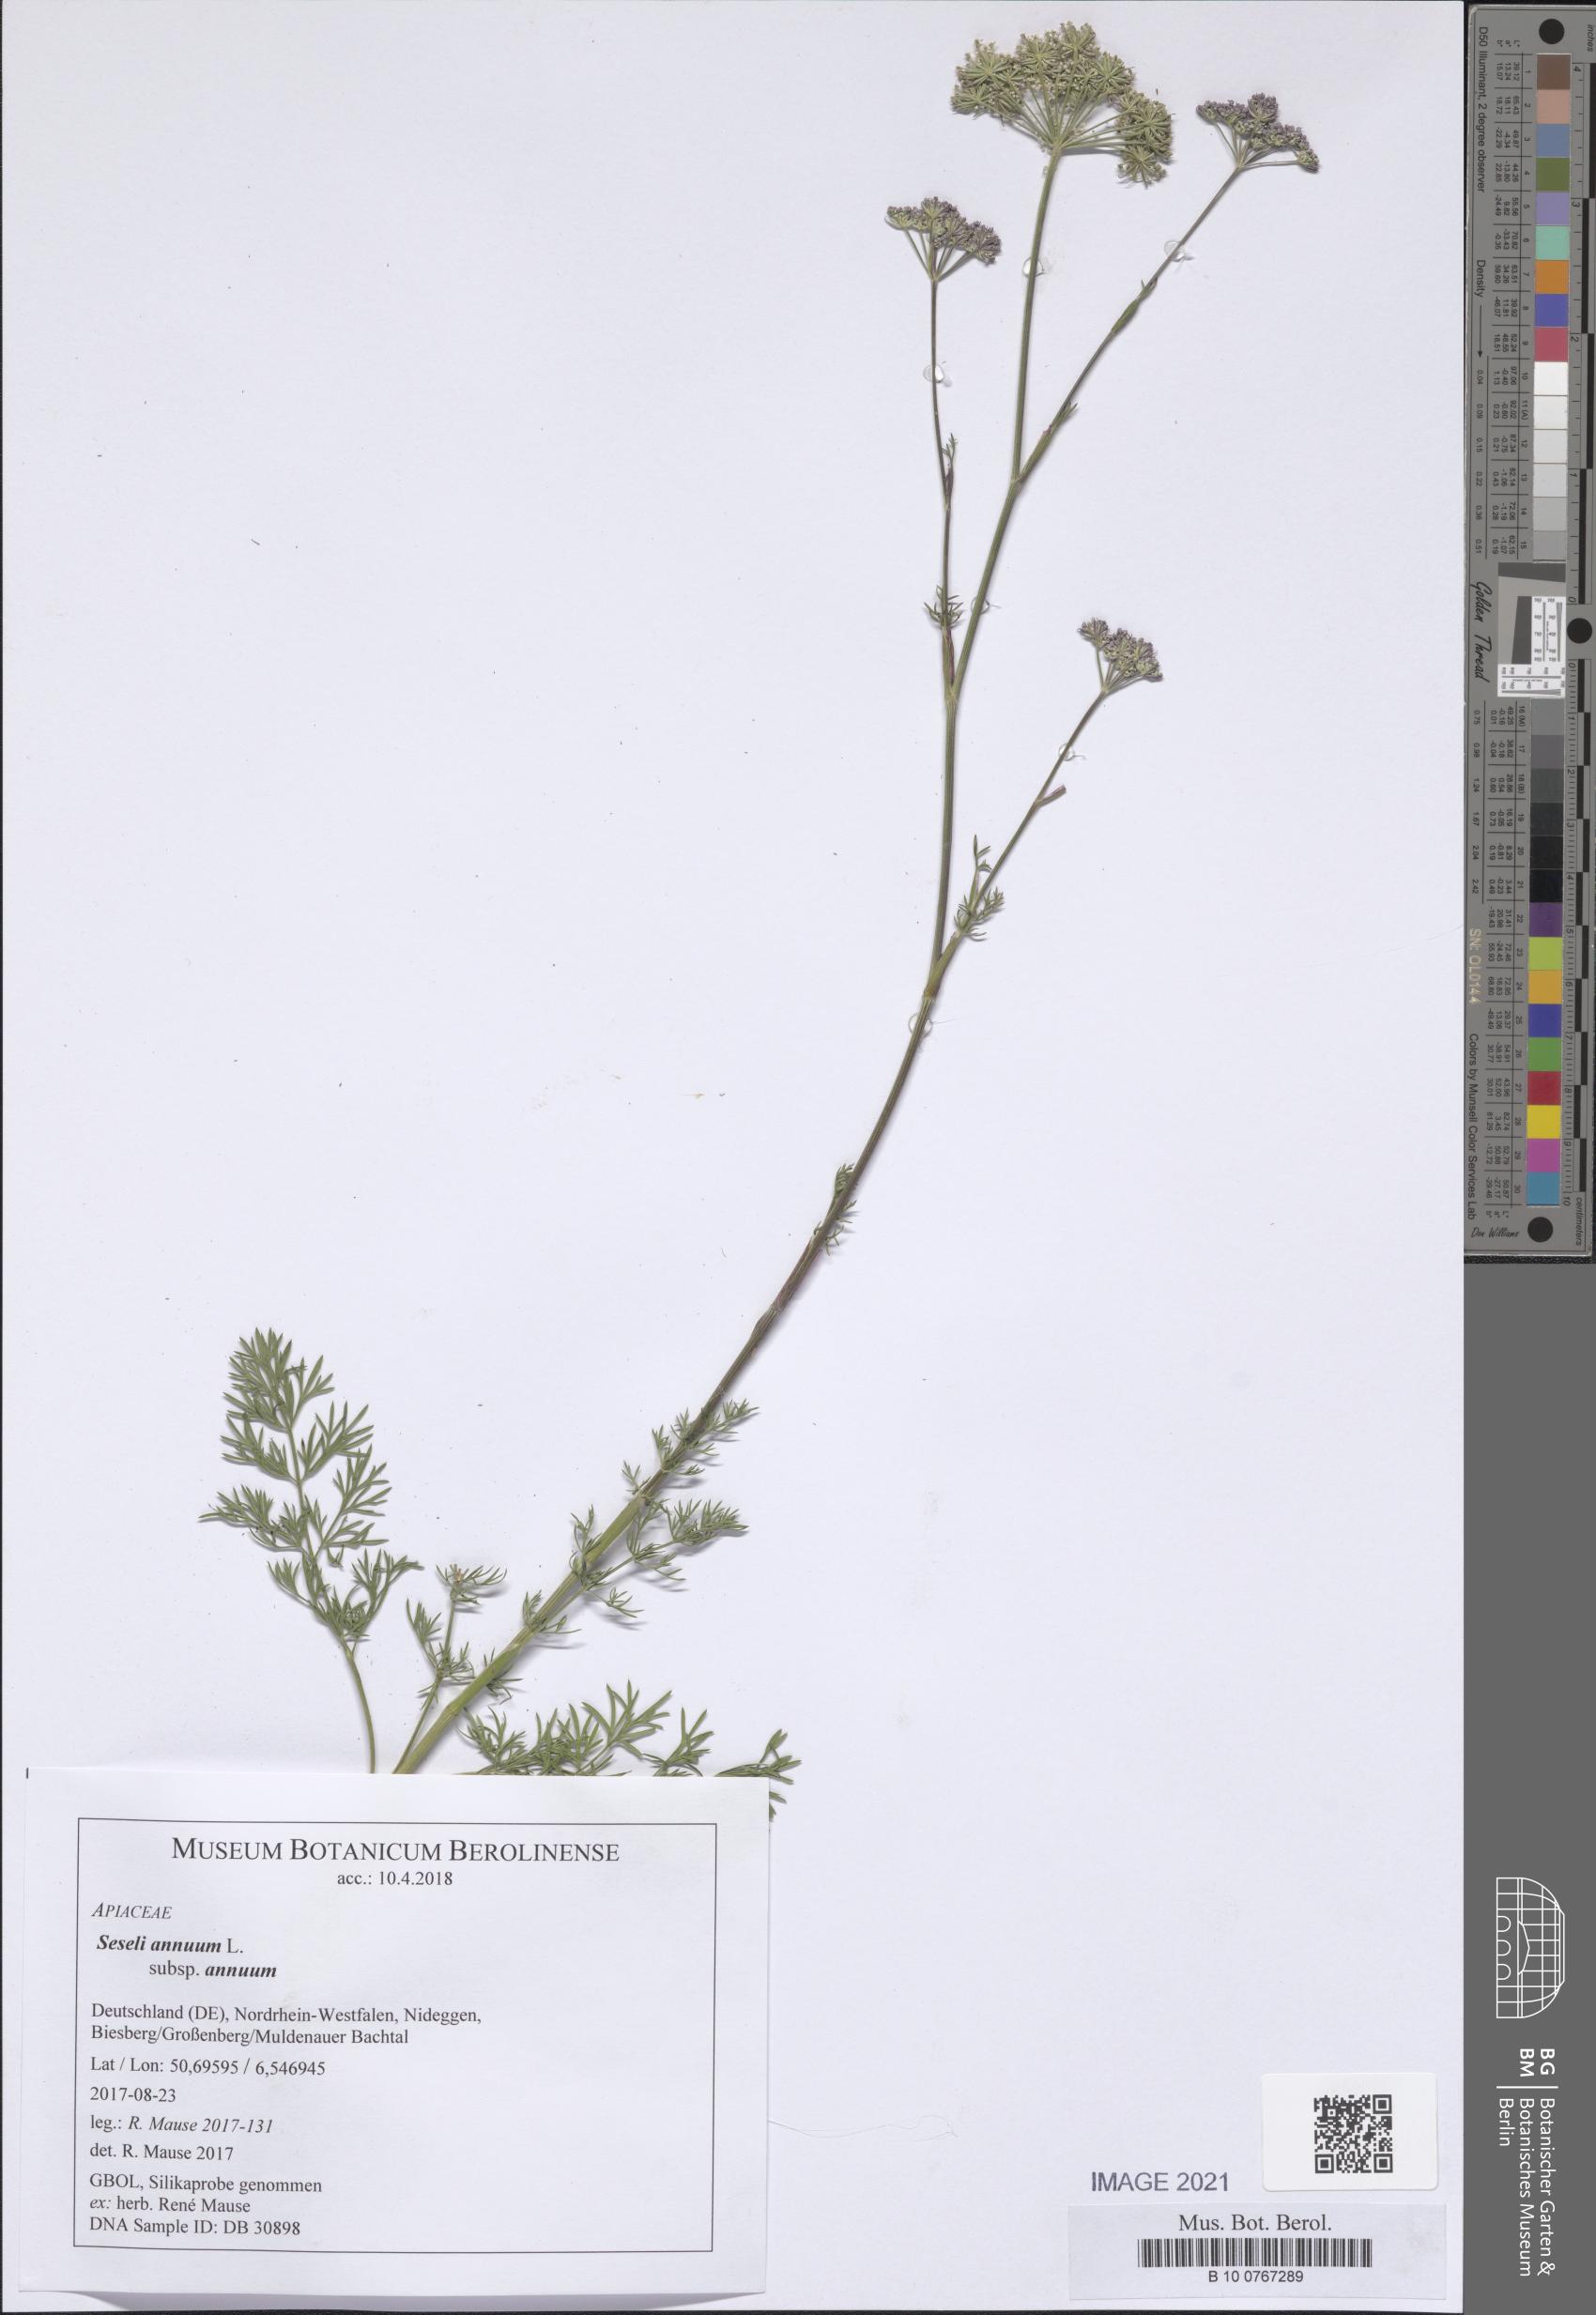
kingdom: Plantae
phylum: Tracheophyta
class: Magnoliopsida
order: Apiales
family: Apiaceae
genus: Seseli
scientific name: Seseli annuum
